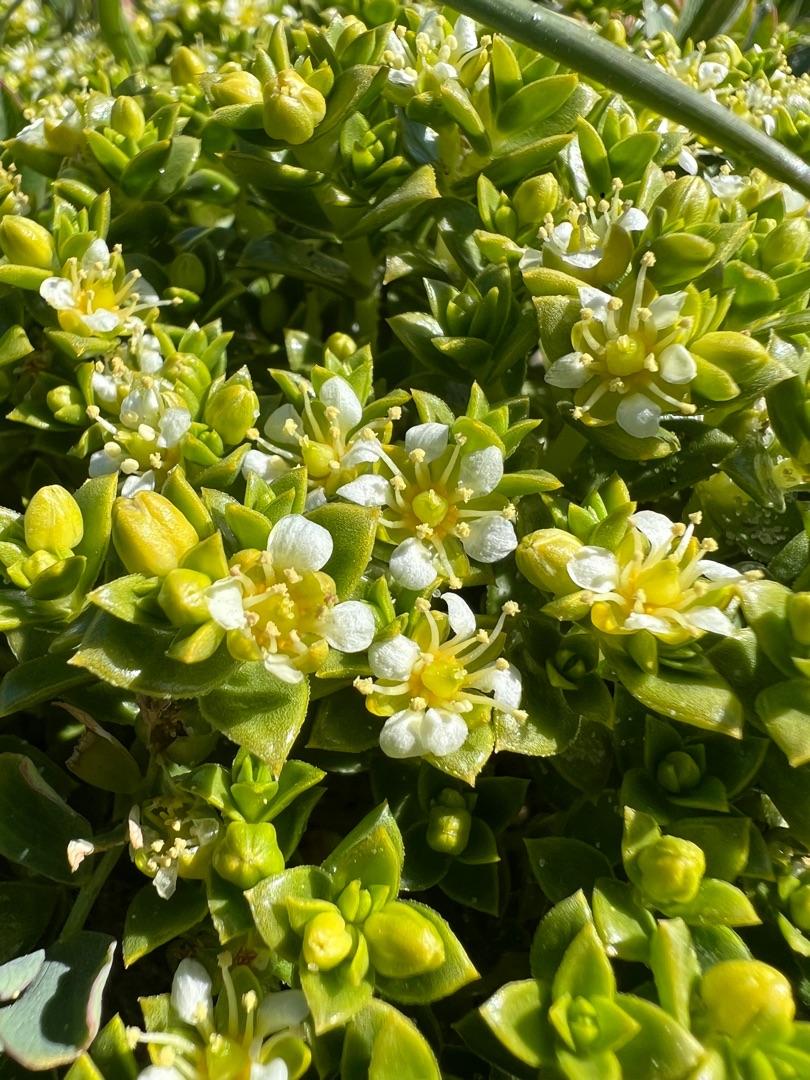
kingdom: Plantae
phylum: Tracheophyta
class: Magnoliopsida
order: Caryophyllales
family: Caryophyllaceae
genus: Honckenya
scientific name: Honckenya peploides
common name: Strandarve
